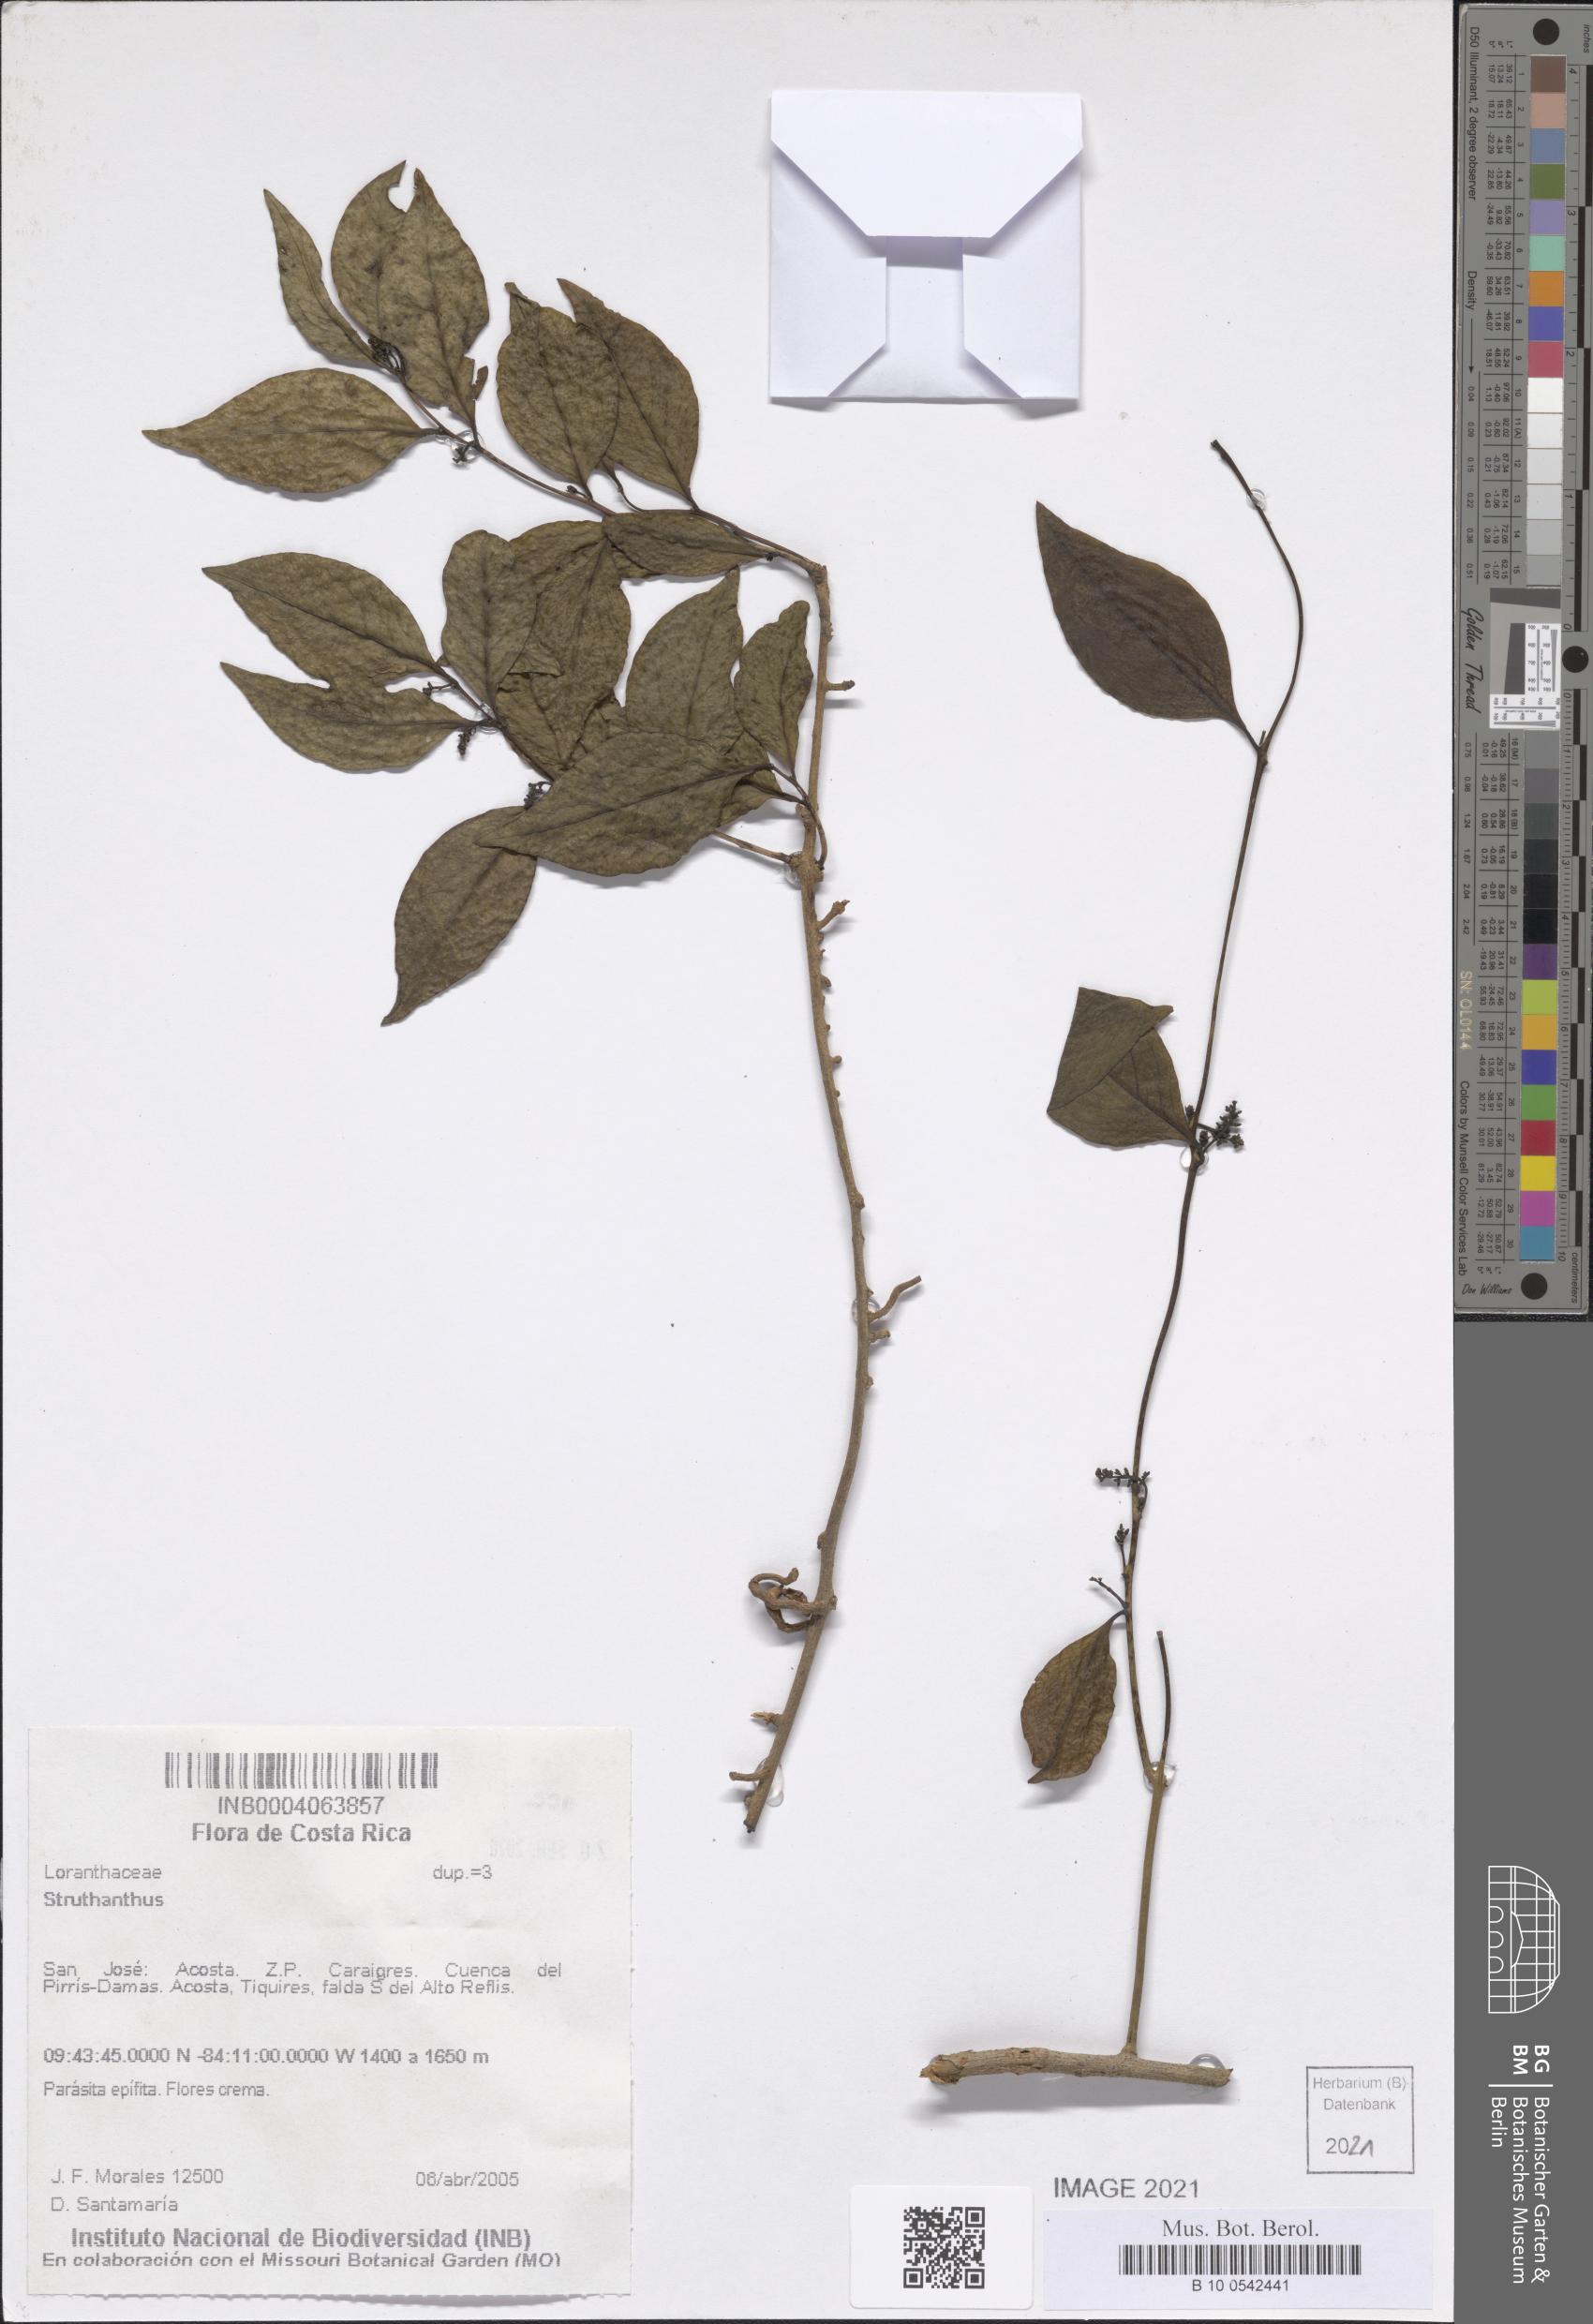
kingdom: Plantae
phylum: Tracheophyta
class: Magnoliopsida
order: Santalales
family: Loranthaceae
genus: Struthanthus
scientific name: Struthanthus
